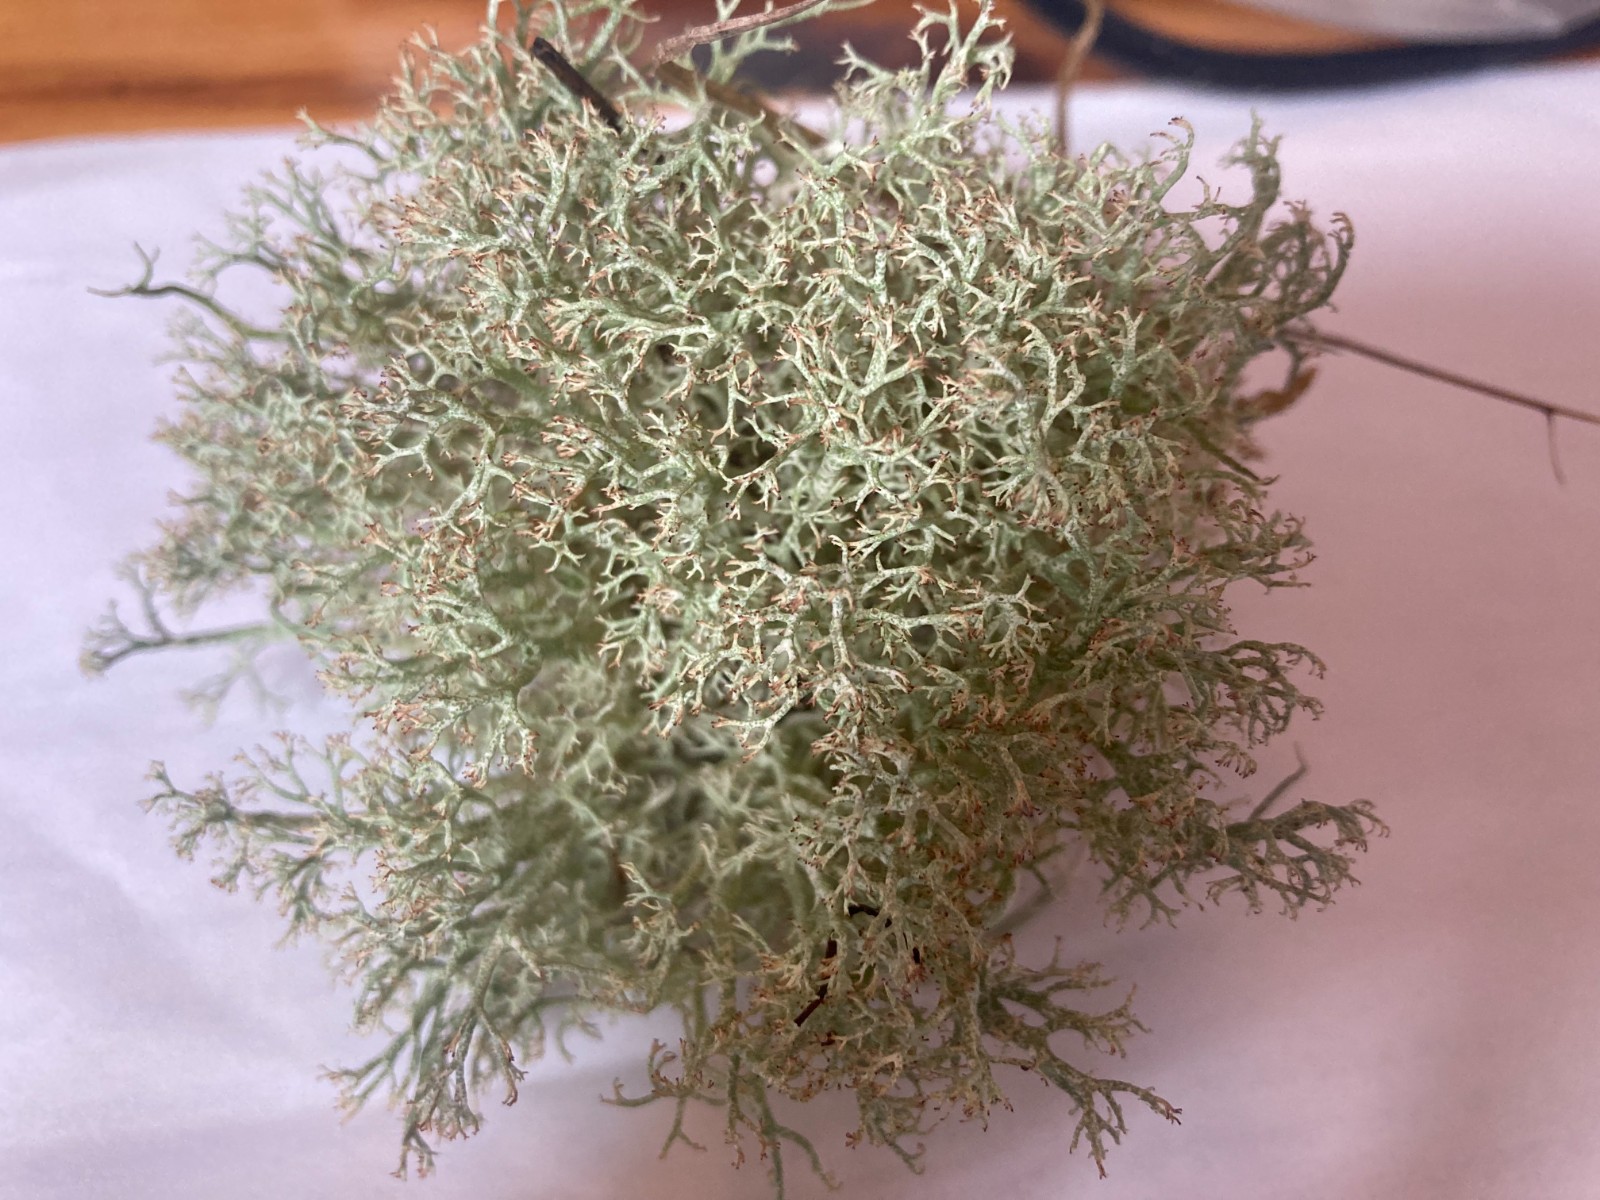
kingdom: Fungi
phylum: Ascomycota
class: Lecanoromycetes
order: Lecanorales
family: Cladoniaceae
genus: Cladonia
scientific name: Cladonia rangiformis
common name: spættet bægerlav
